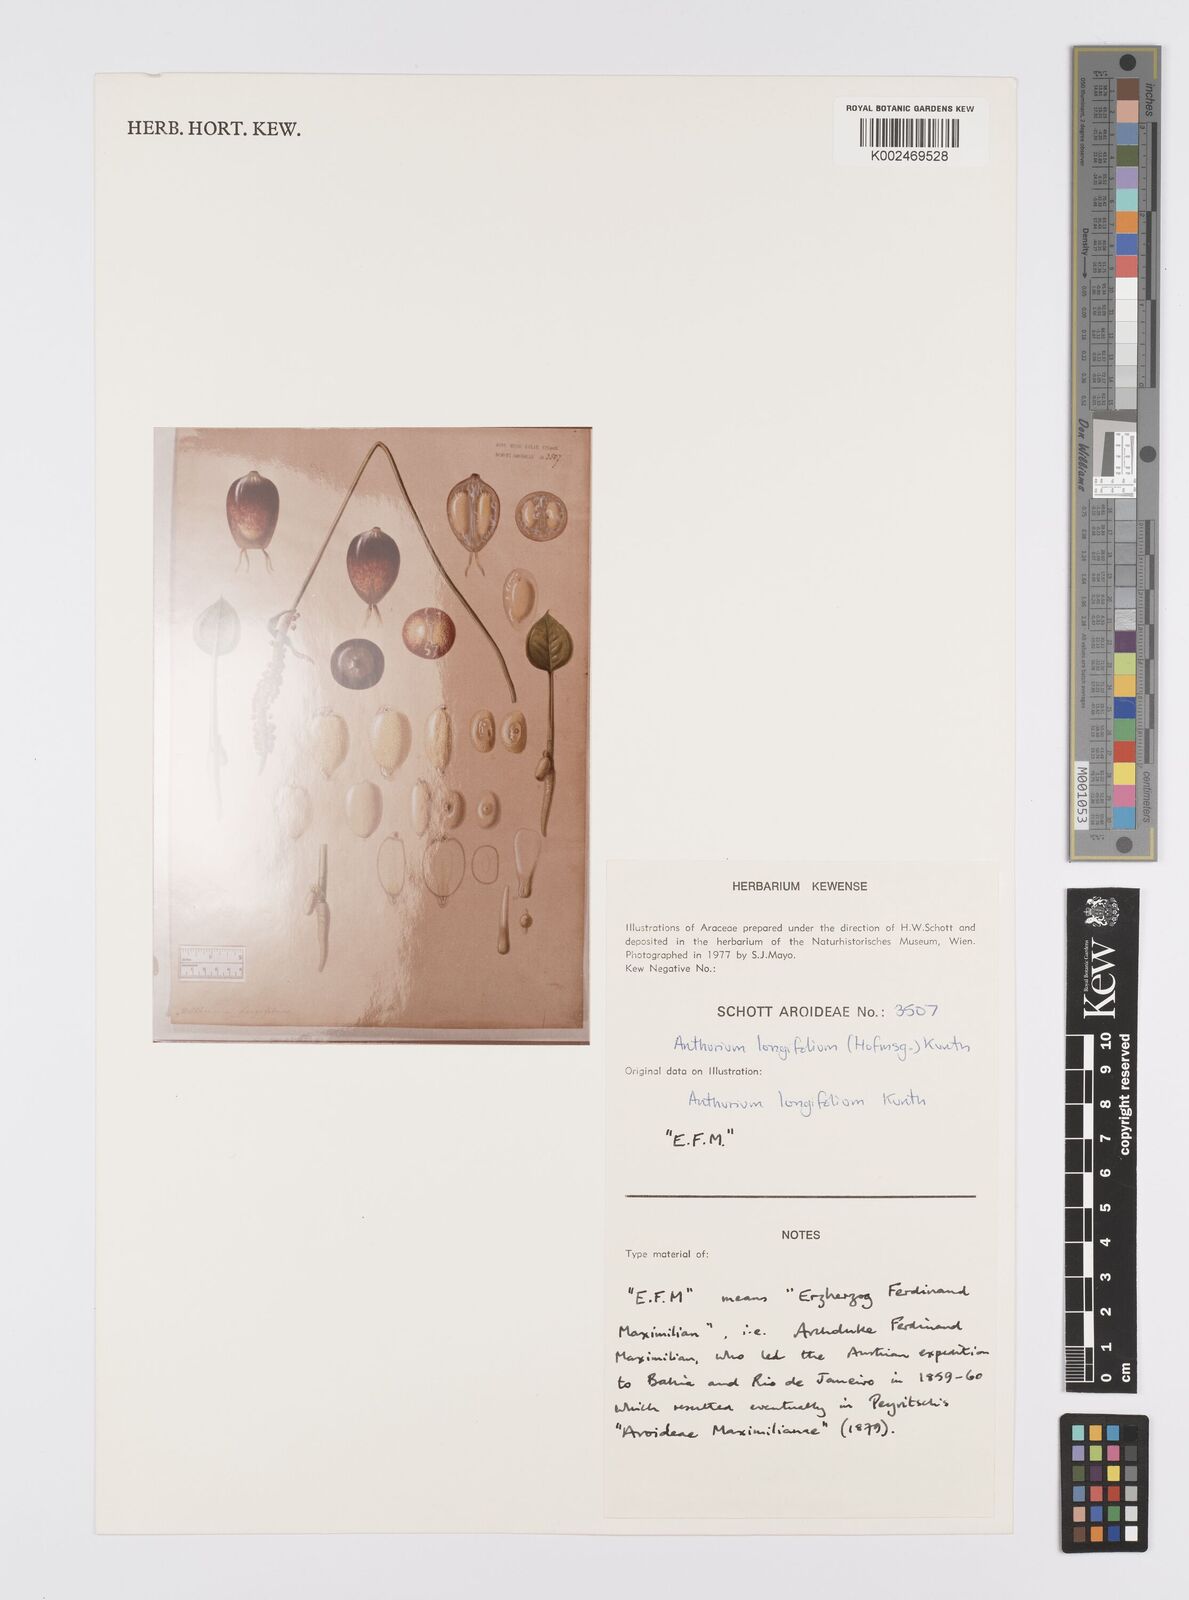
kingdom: Plantae
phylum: Tracheophyta
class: Liliopsida
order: Alismatales
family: Araceae
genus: Anthurium
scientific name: Anthurium longifolium
